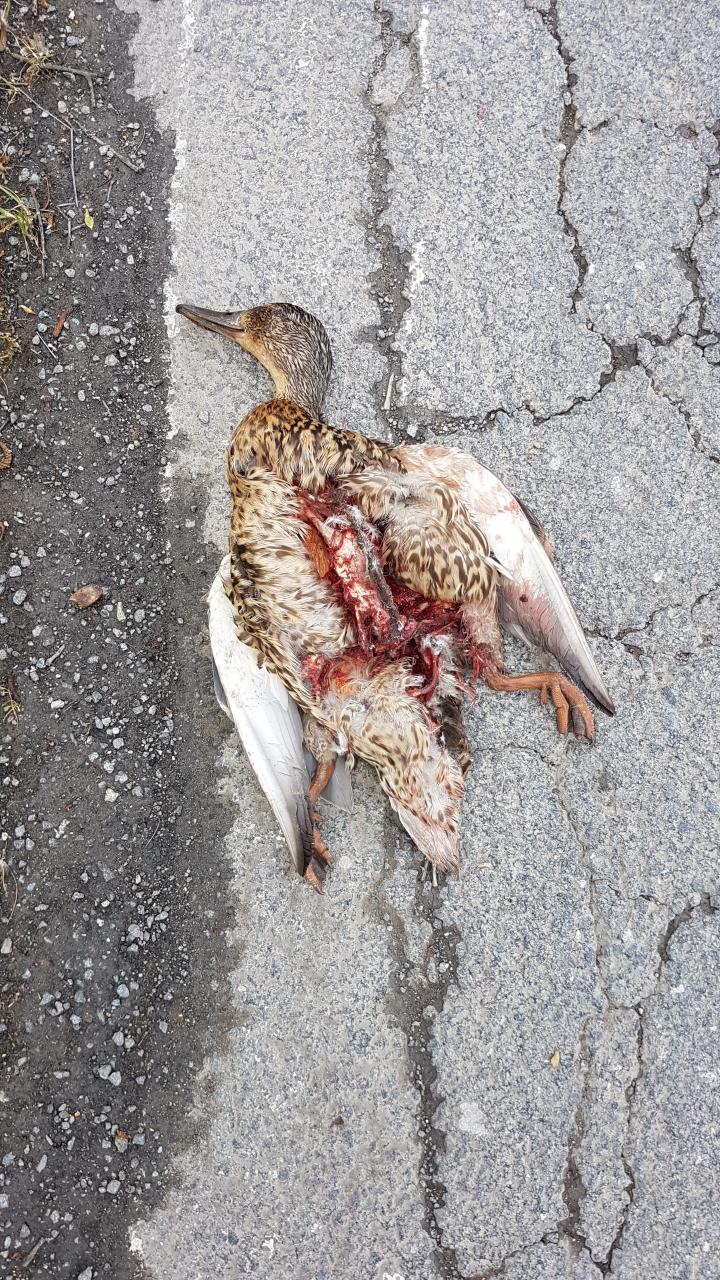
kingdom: Animalia
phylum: Chordata
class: Aves
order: Anseriformes
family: Anatidae
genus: Anas
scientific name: Anas platyrhynchos
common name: Mallard
